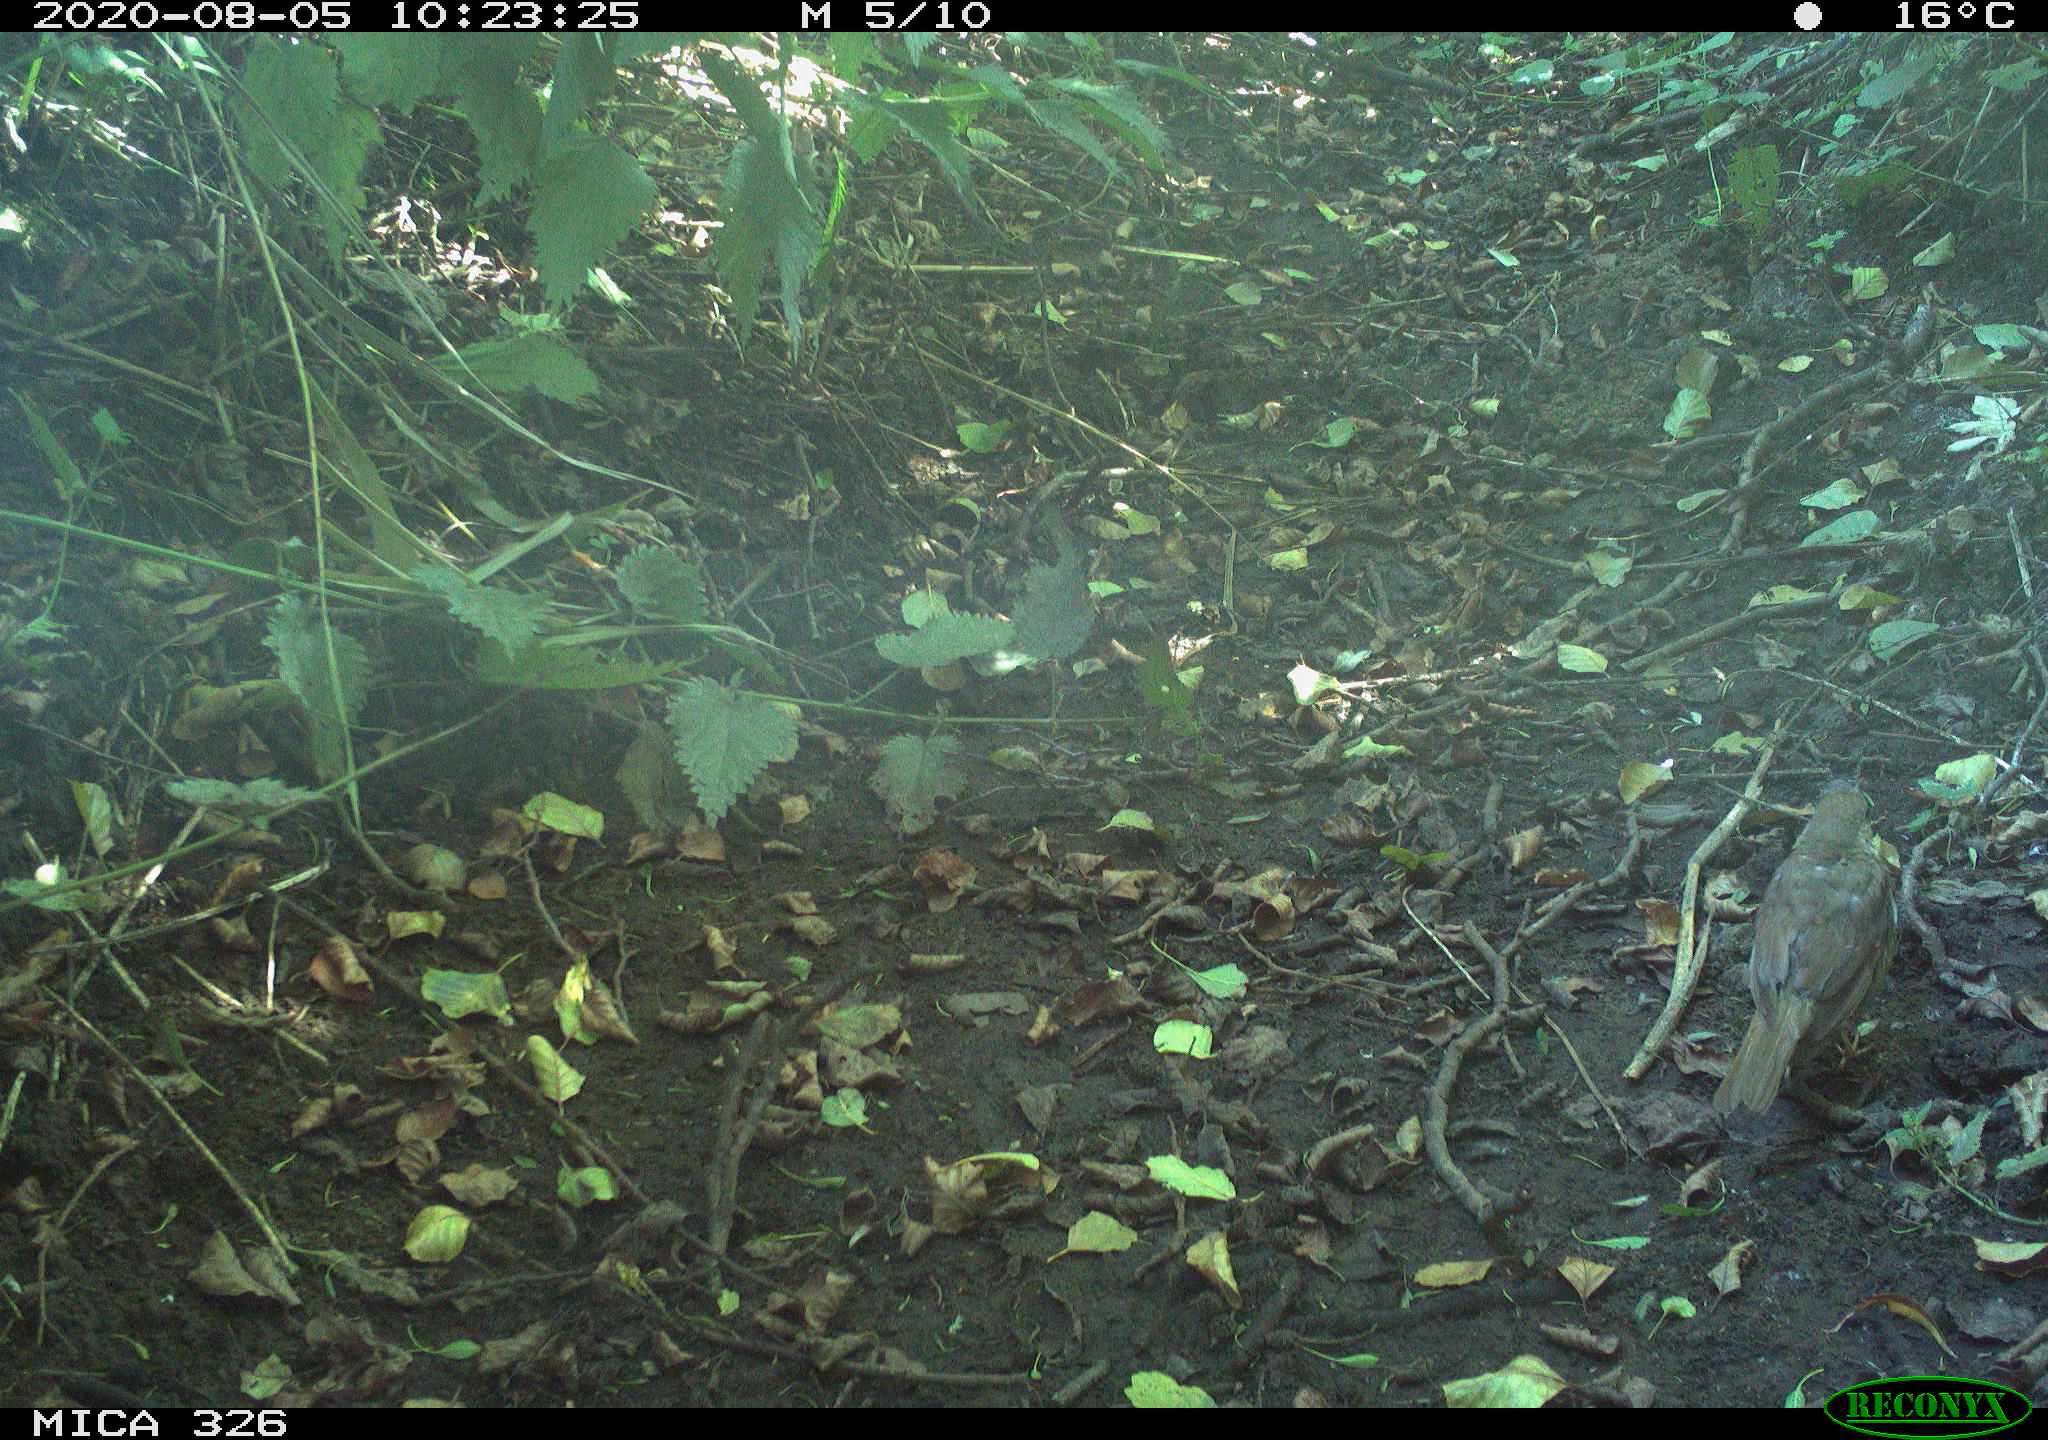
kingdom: Animalia
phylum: Chordata
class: Aves
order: Passeriformes
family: Turdidae
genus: Turdus
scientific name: Turdus philomelos
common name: Song thrush
